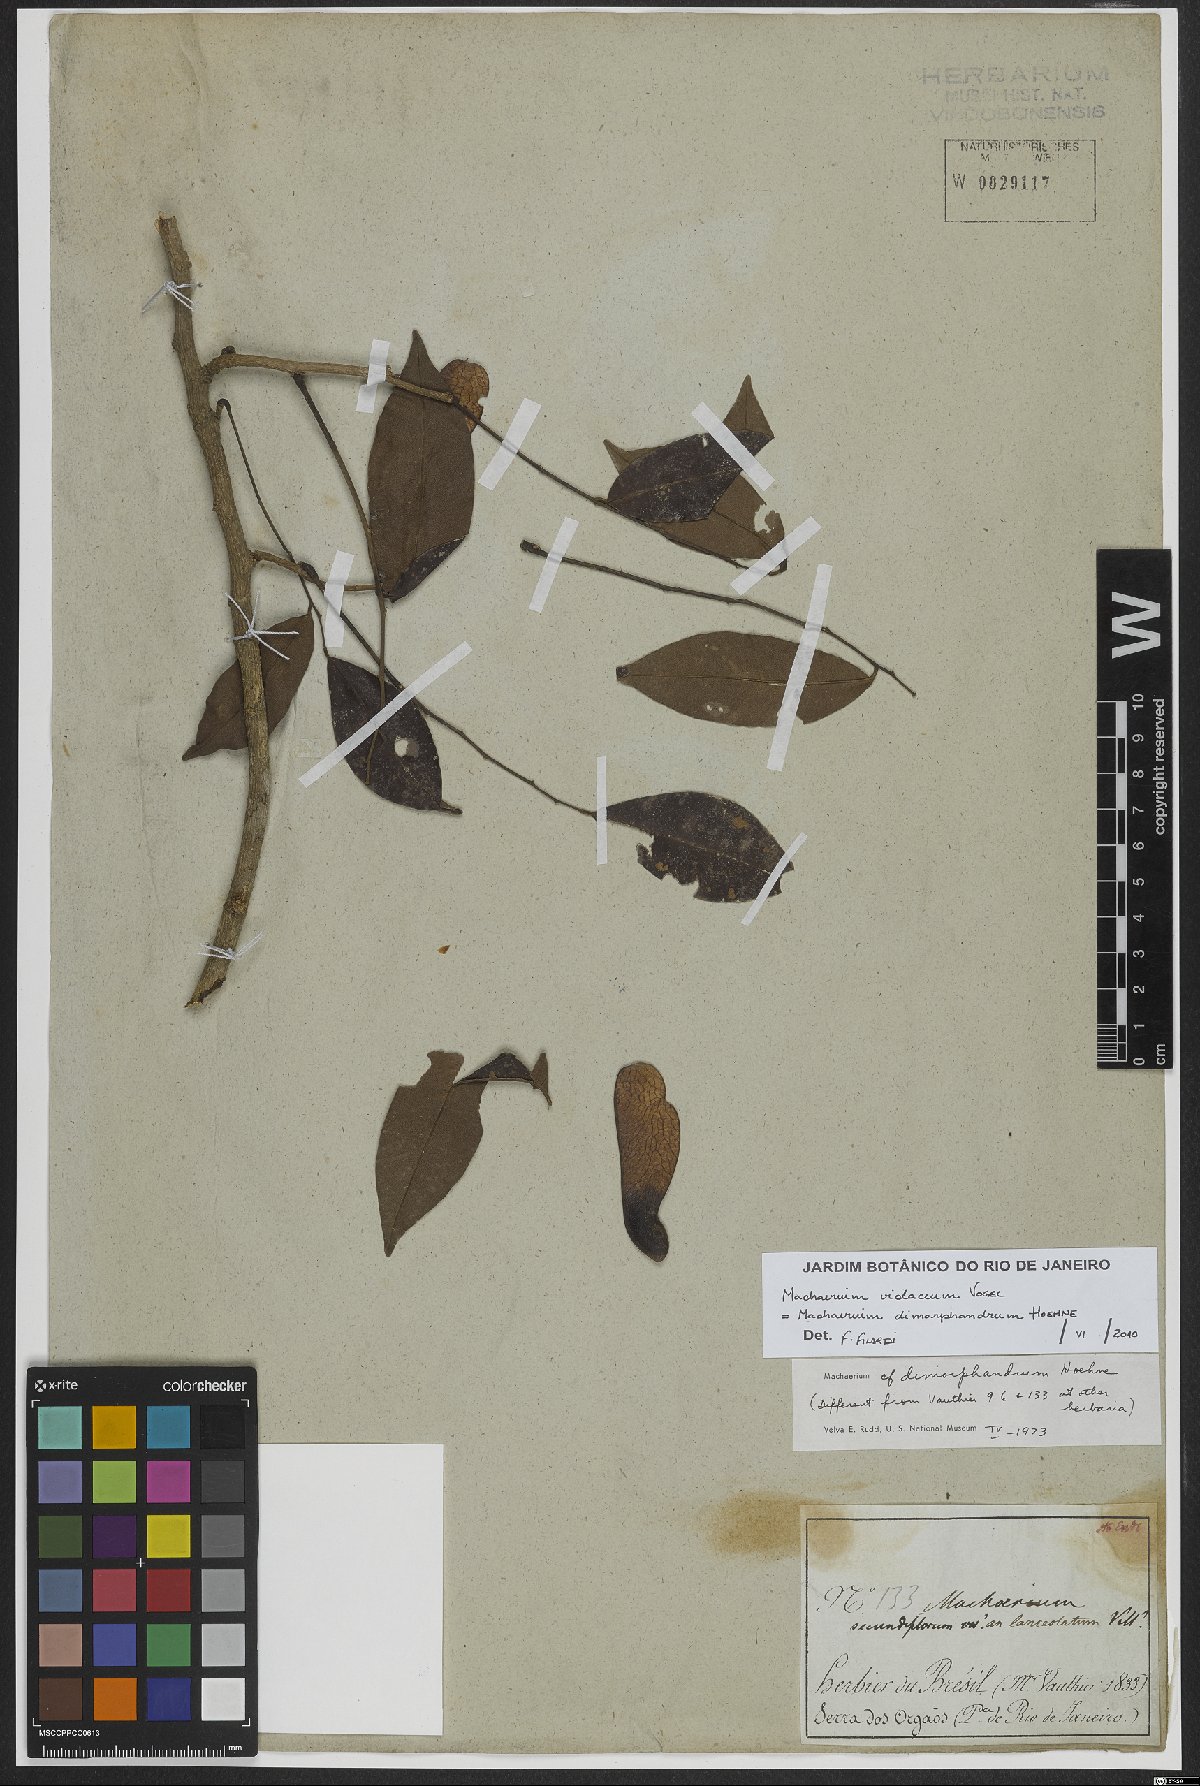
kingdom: Plantae
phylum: Tracheophyta
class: Magnoliopsida
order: Fabales
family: Fabaceae
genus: Machaerium
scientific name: Machaerium debile
